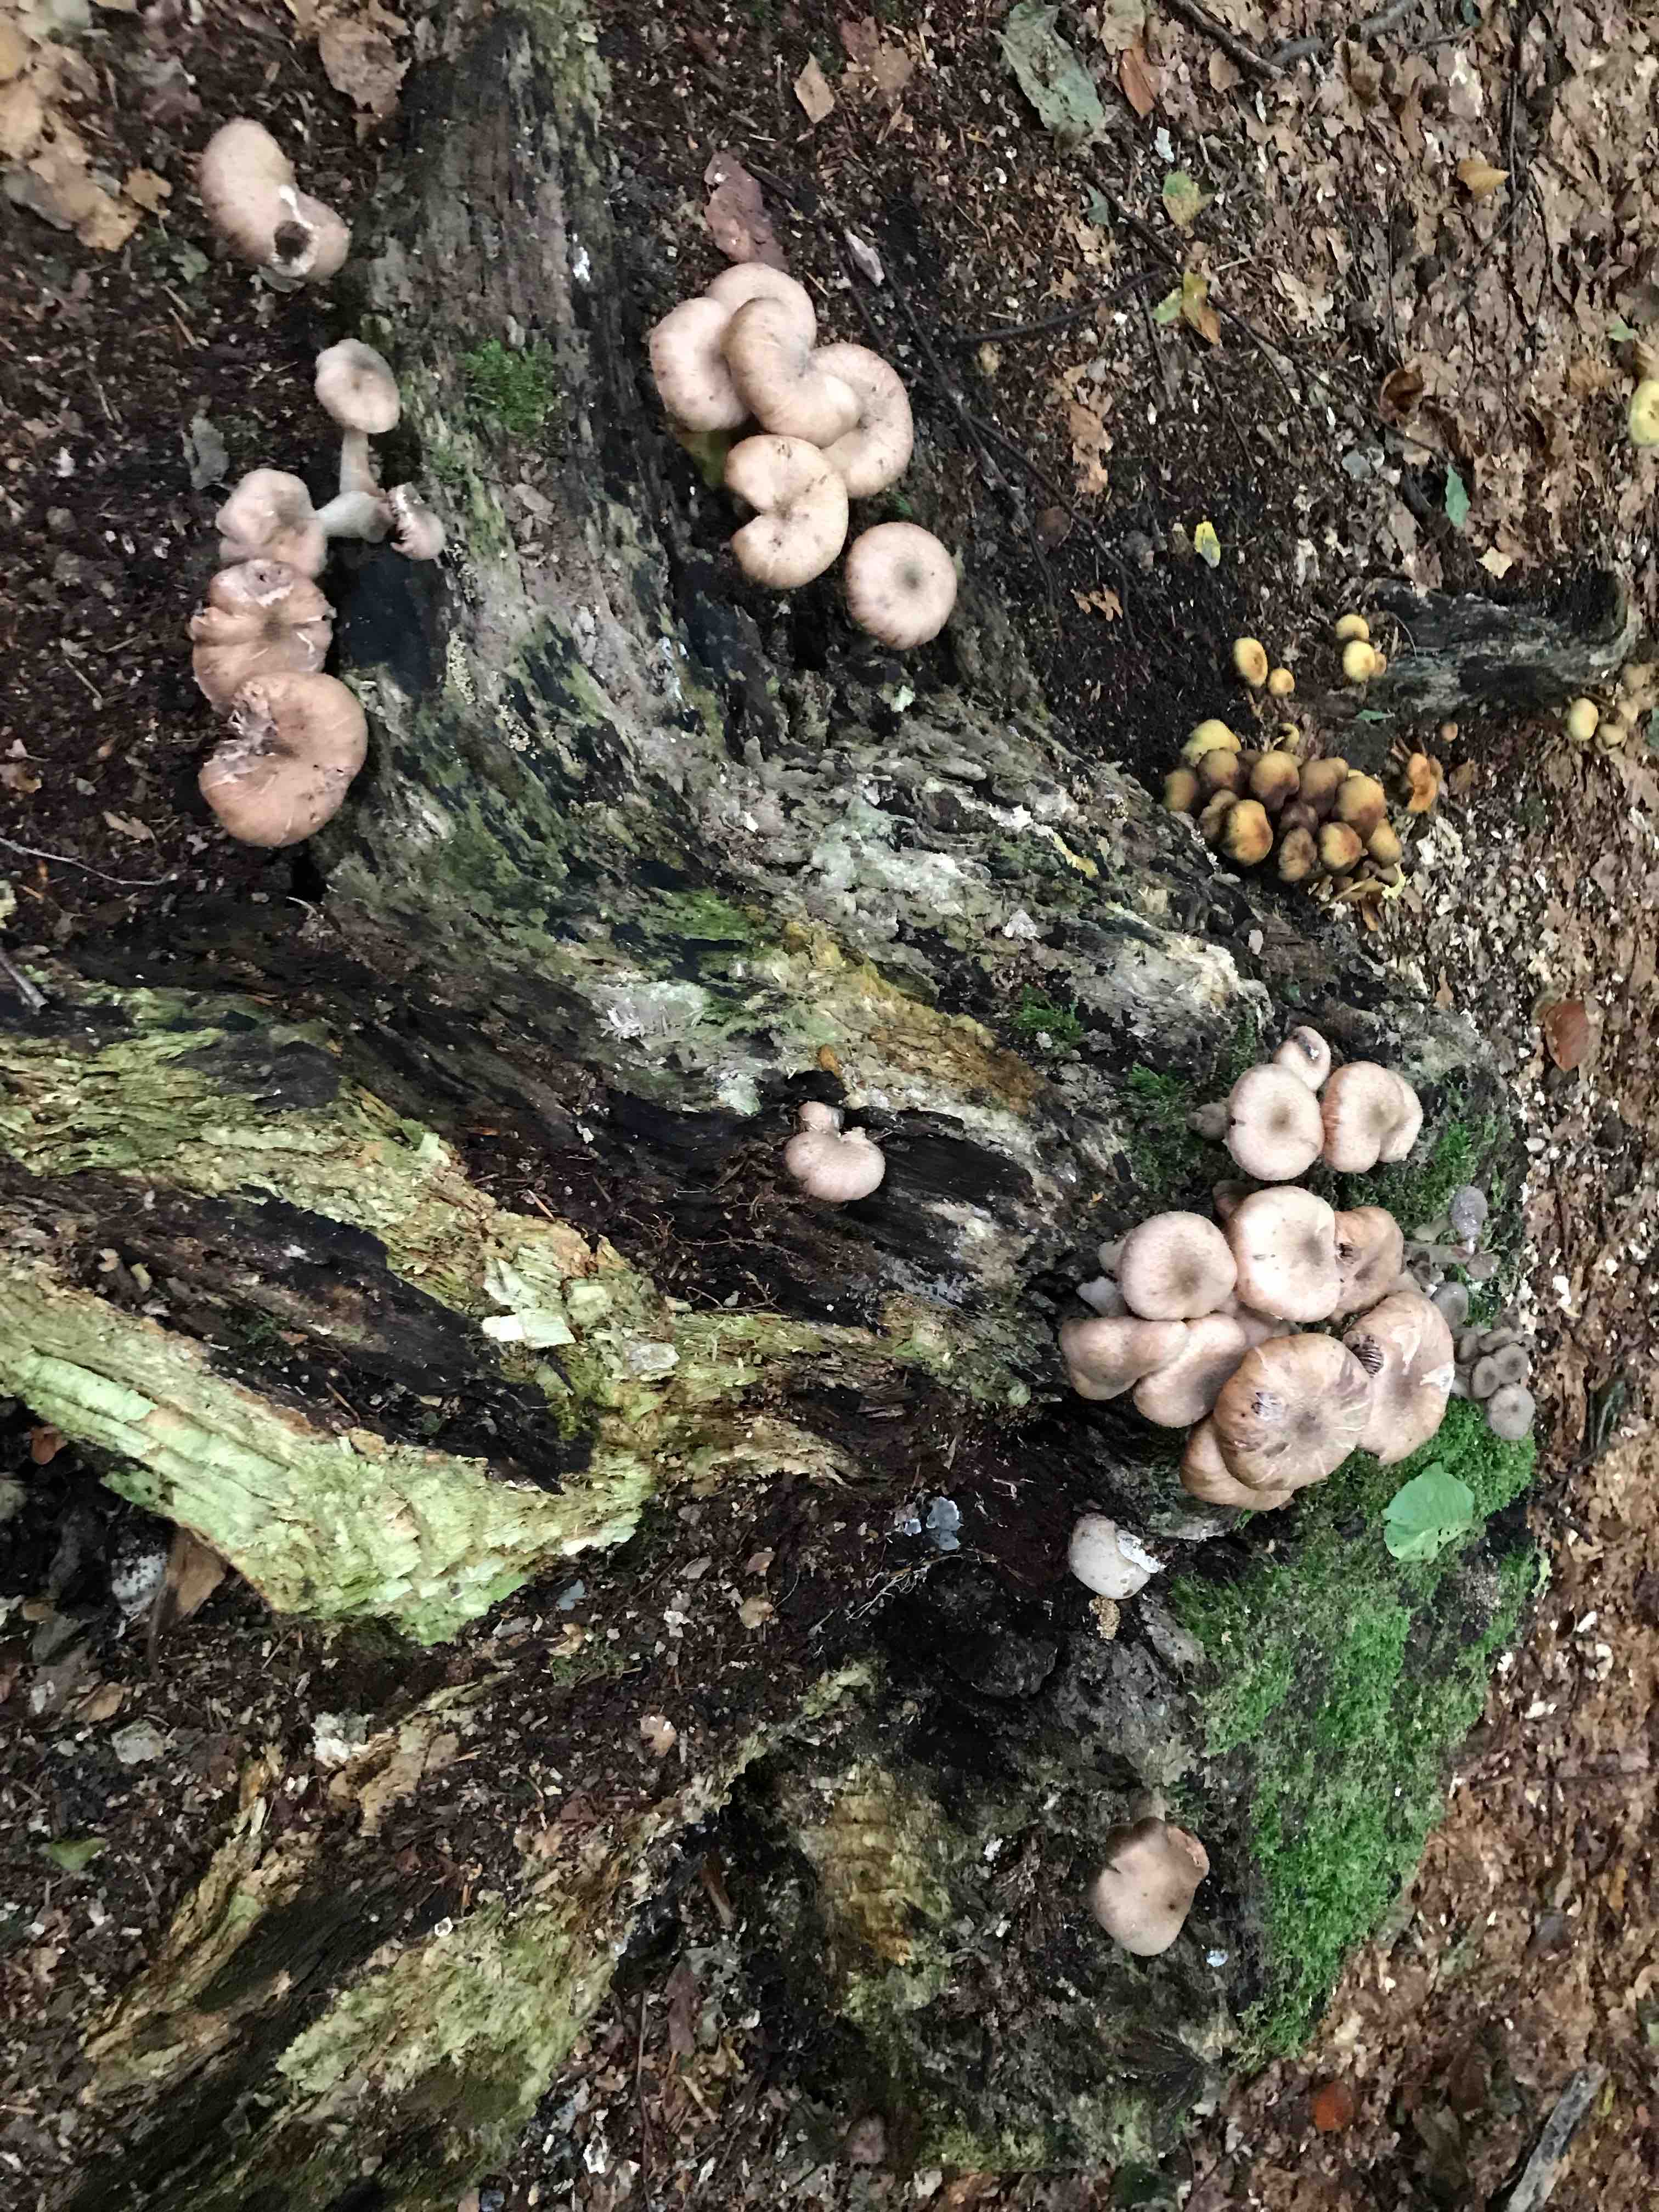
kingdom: Fungi
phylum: Basidiomycota
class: Agaricomycetes
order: Agaricales
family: Physalacriaceae
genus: Armillaria
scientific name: Armillaria
